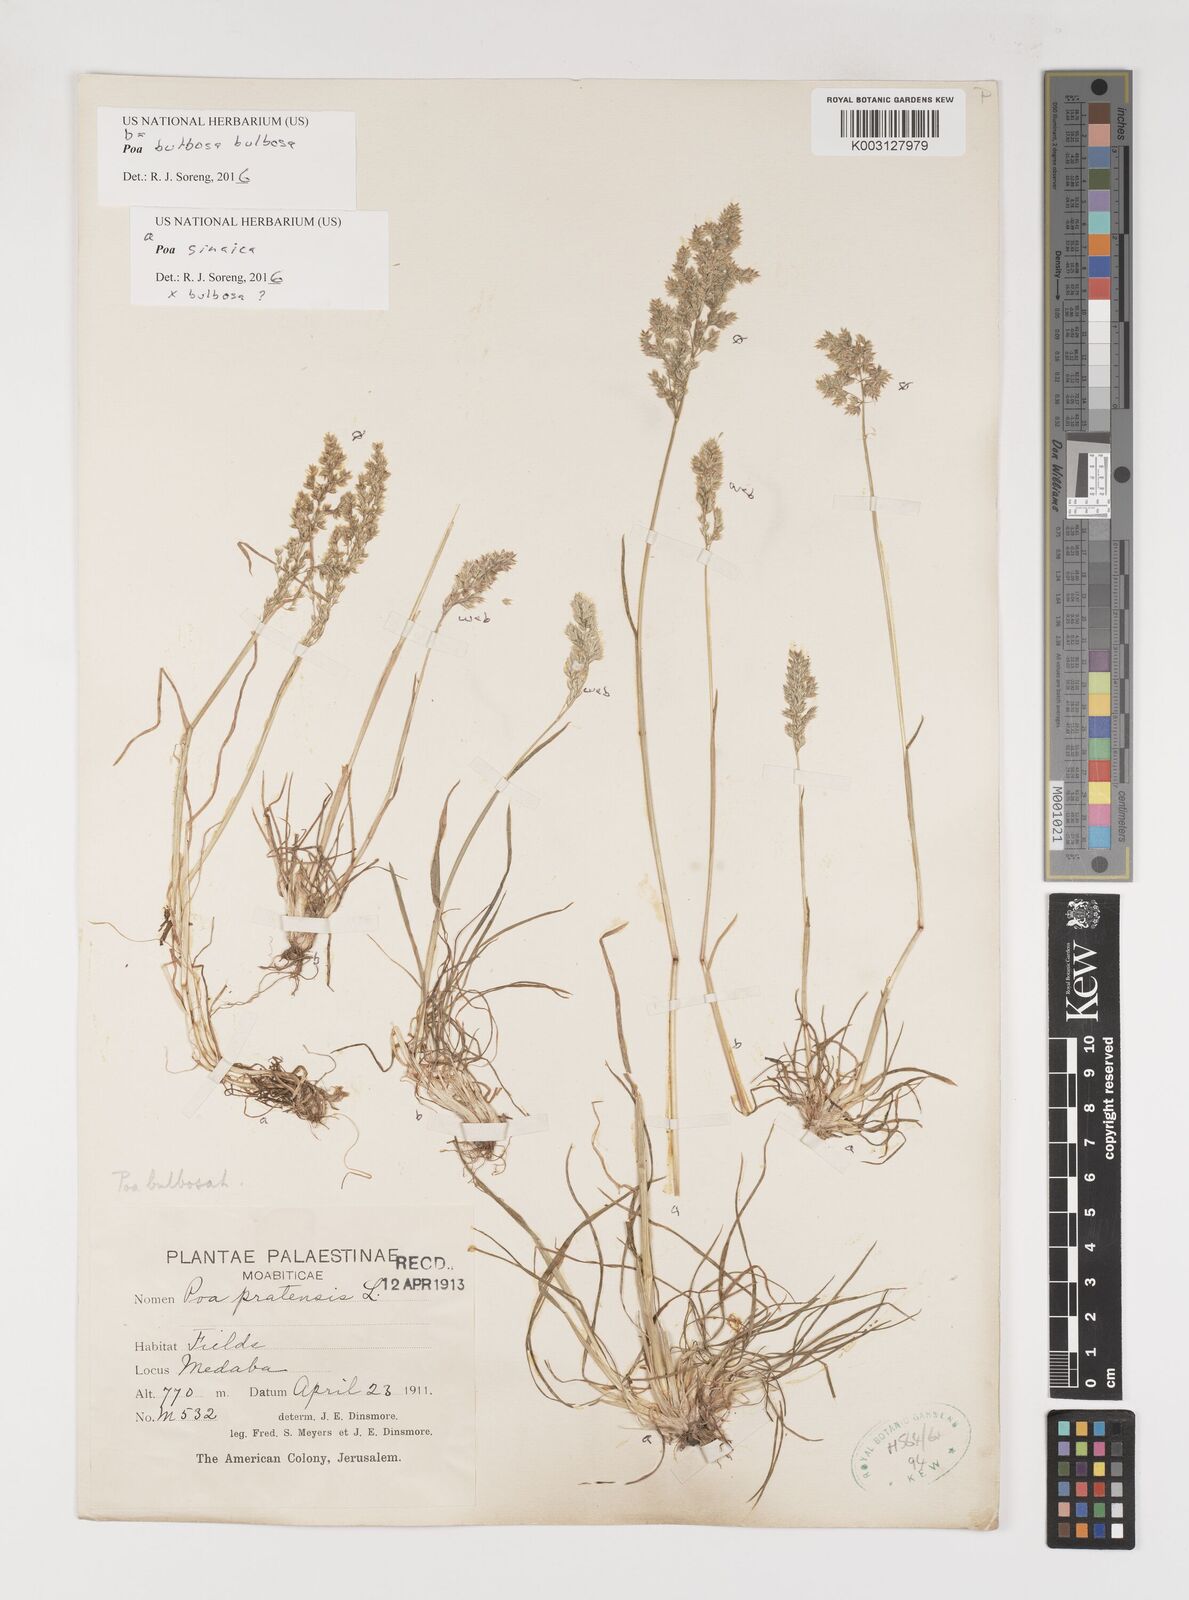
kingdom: Plantae
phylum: Tracheophyta
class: Liliopsida
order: Poales
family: Poaceae
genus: Poa
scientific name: Poa bulbosa
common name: Bulbous bluegrass
